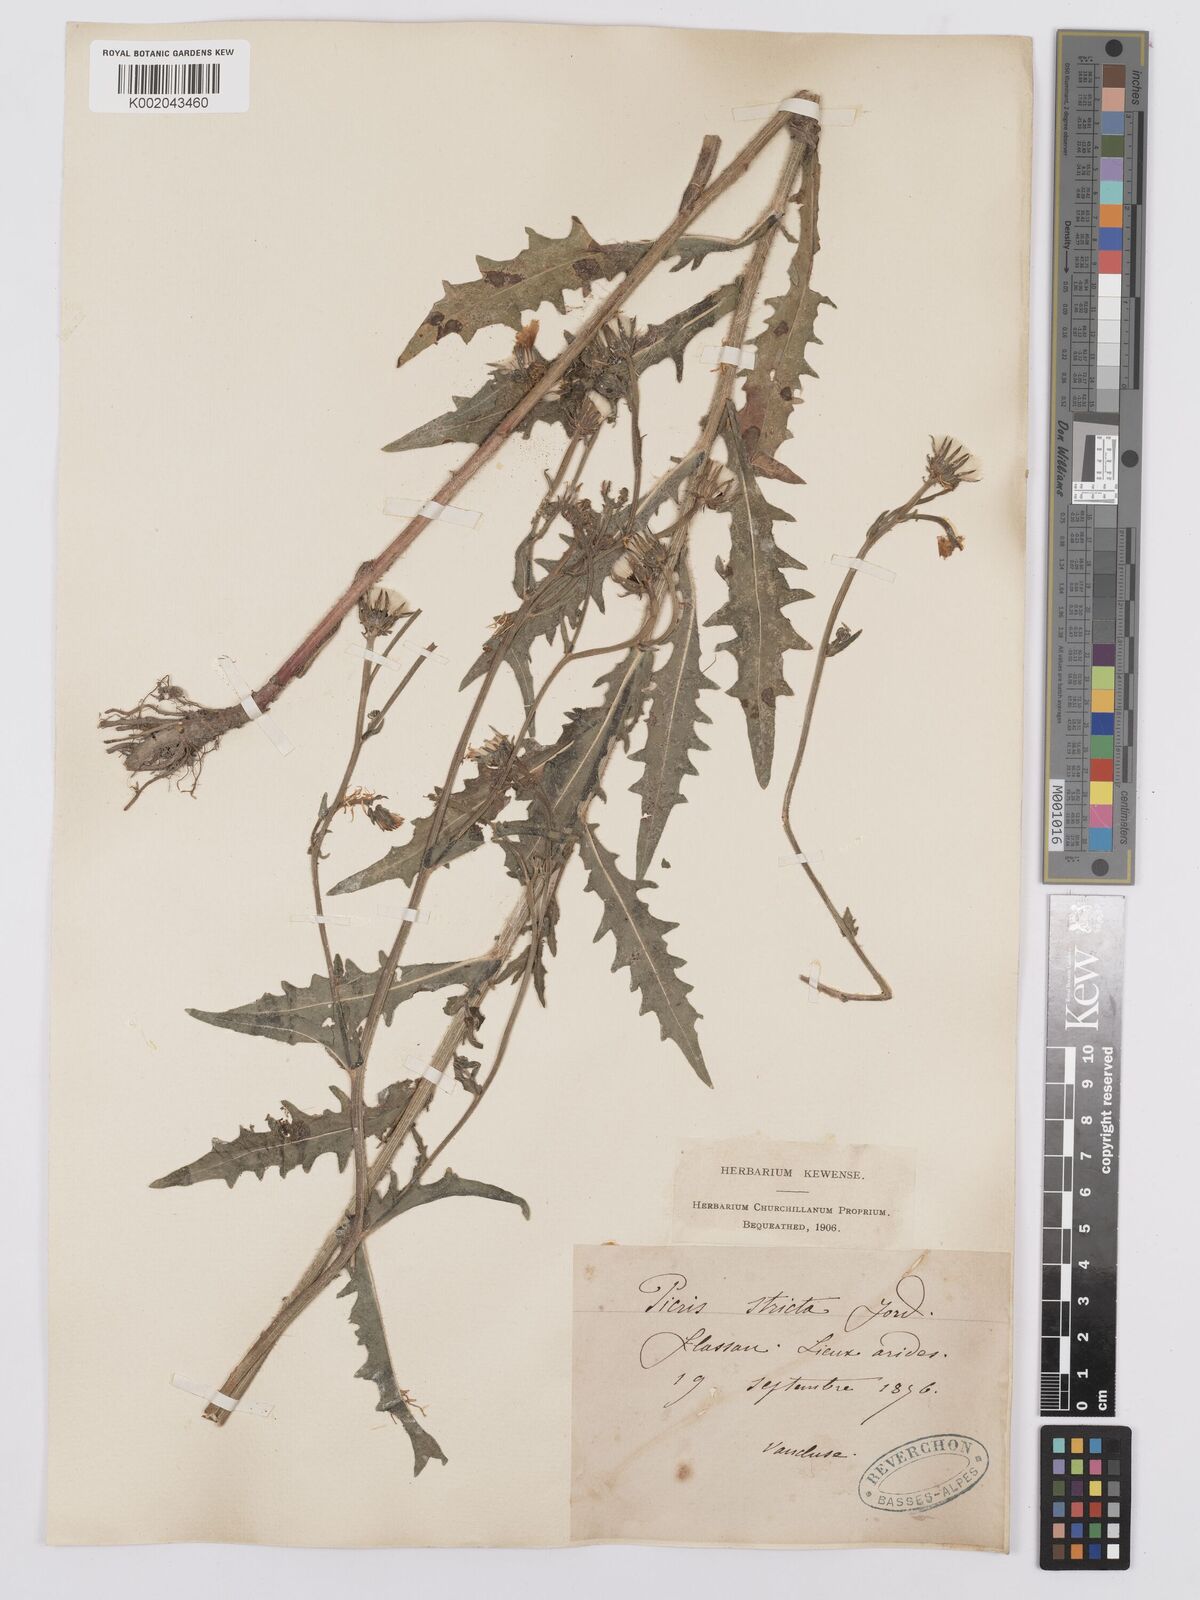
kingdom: Plantae
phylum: Tracheophyta
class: Magnoliopsida
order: Asterales
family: Asteraceae
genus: Picris
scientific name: Picris hieracioides
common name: Hawkweed oxtongue
